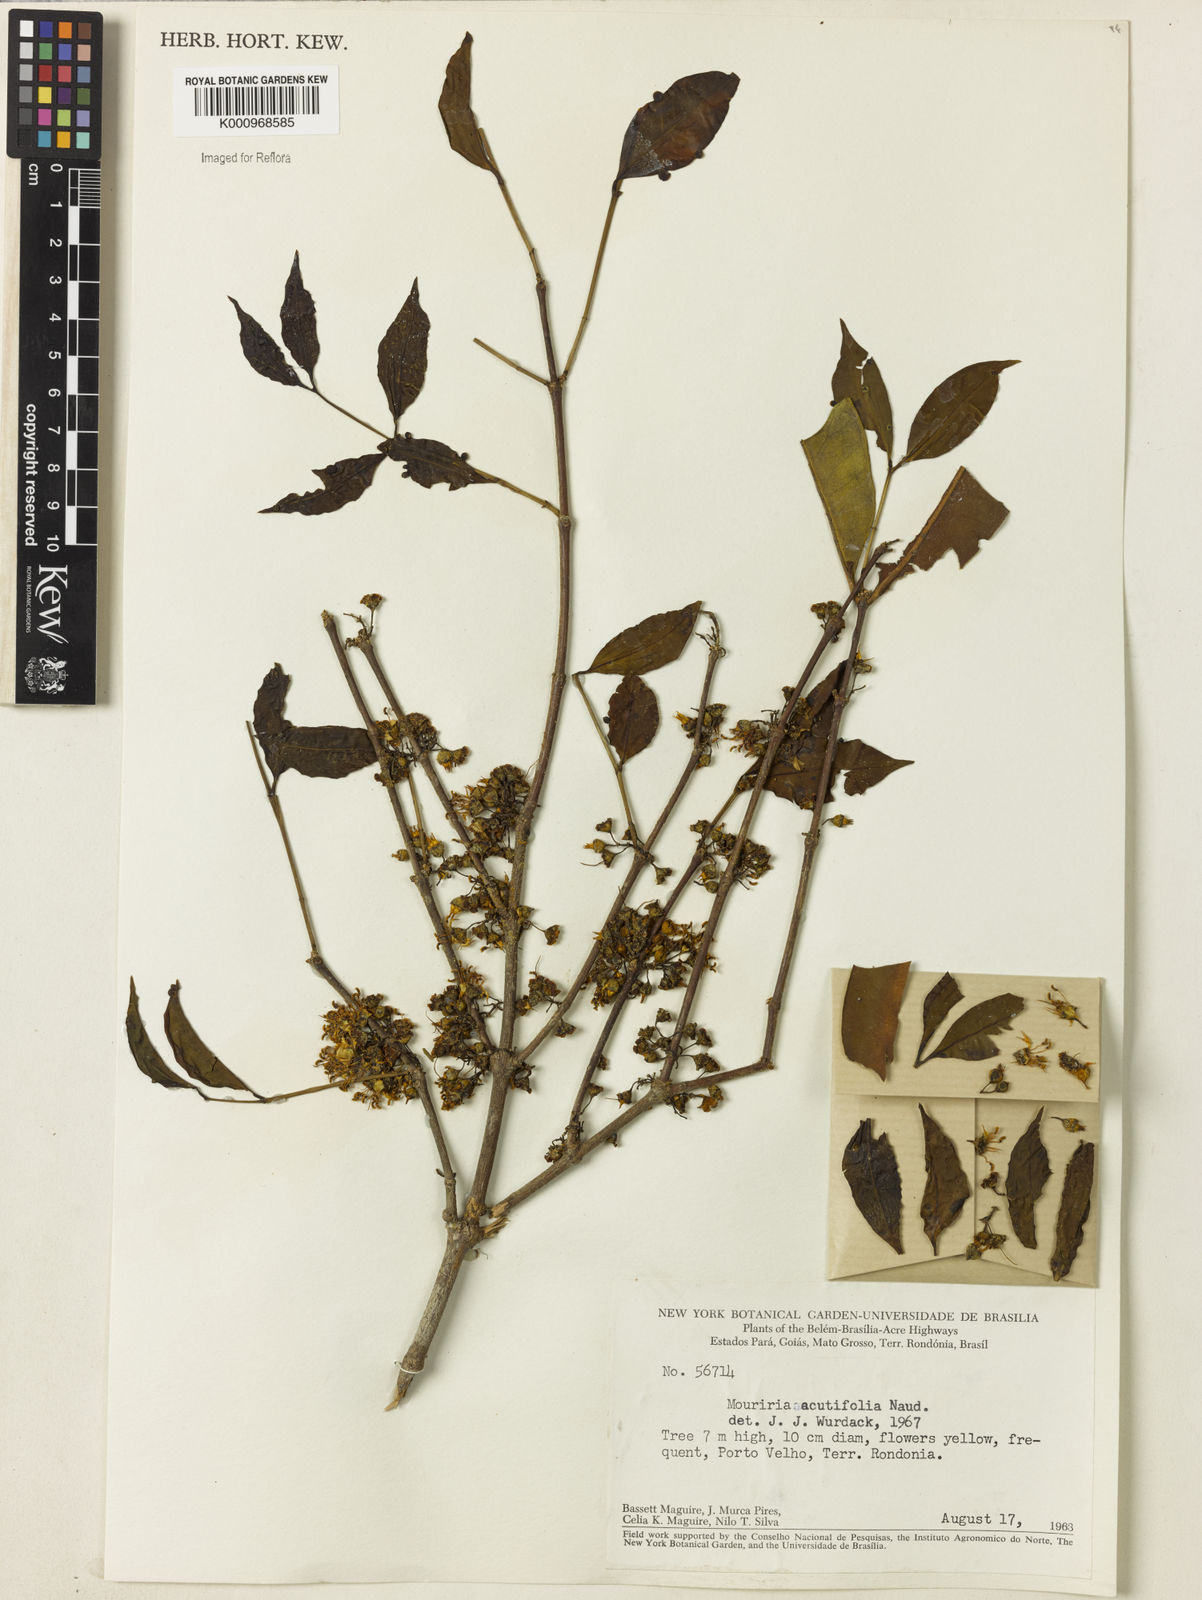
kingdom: Plantae
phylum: Tracheophyta
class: Magnoliopsida
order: Myrtales
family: Melastomataceae
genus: Mouriri
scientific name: Mouriri acutiflora
